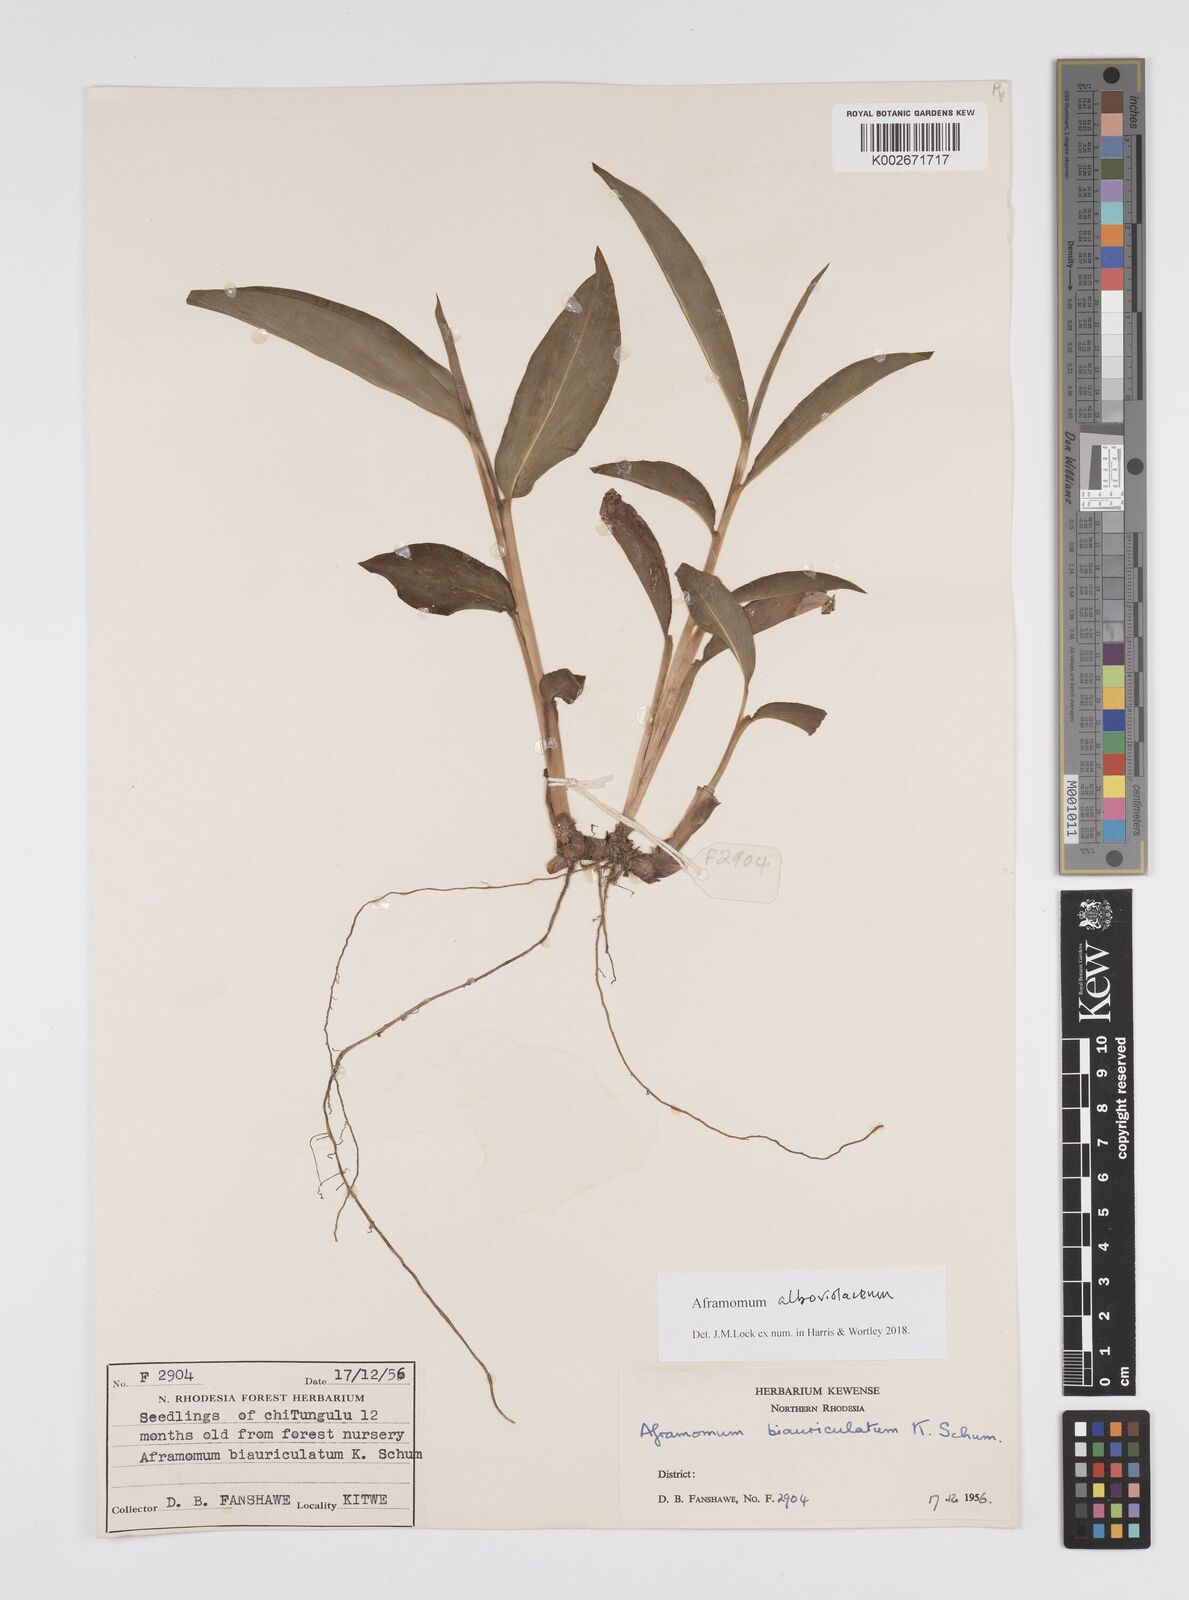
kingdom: Plantae
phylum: Tracheophyta
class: Liliopsida
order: Zingiberales
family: Zingiberaceae
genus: Aframomum
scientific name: Aframomum alboviolaceum
